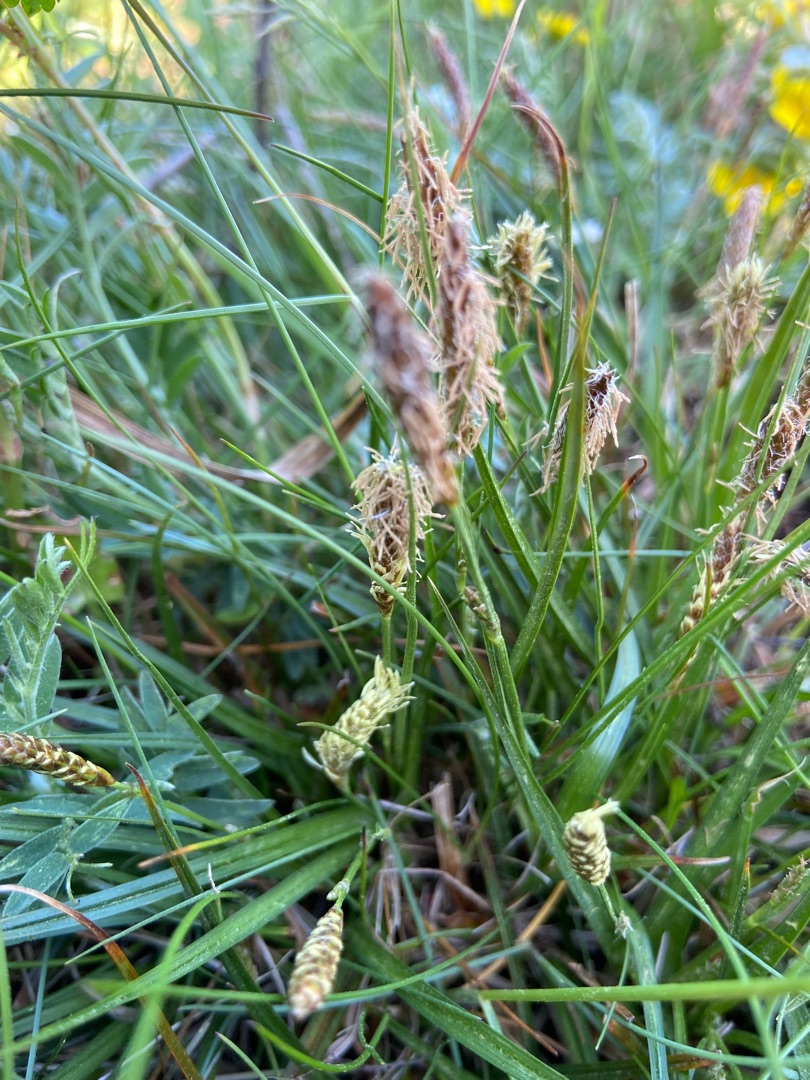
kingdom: Plantae
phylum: Tracheophyta
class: Liliopsida
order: Poales
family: Cyperaceae
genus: Carex
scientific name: Carex
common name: Starslægten
